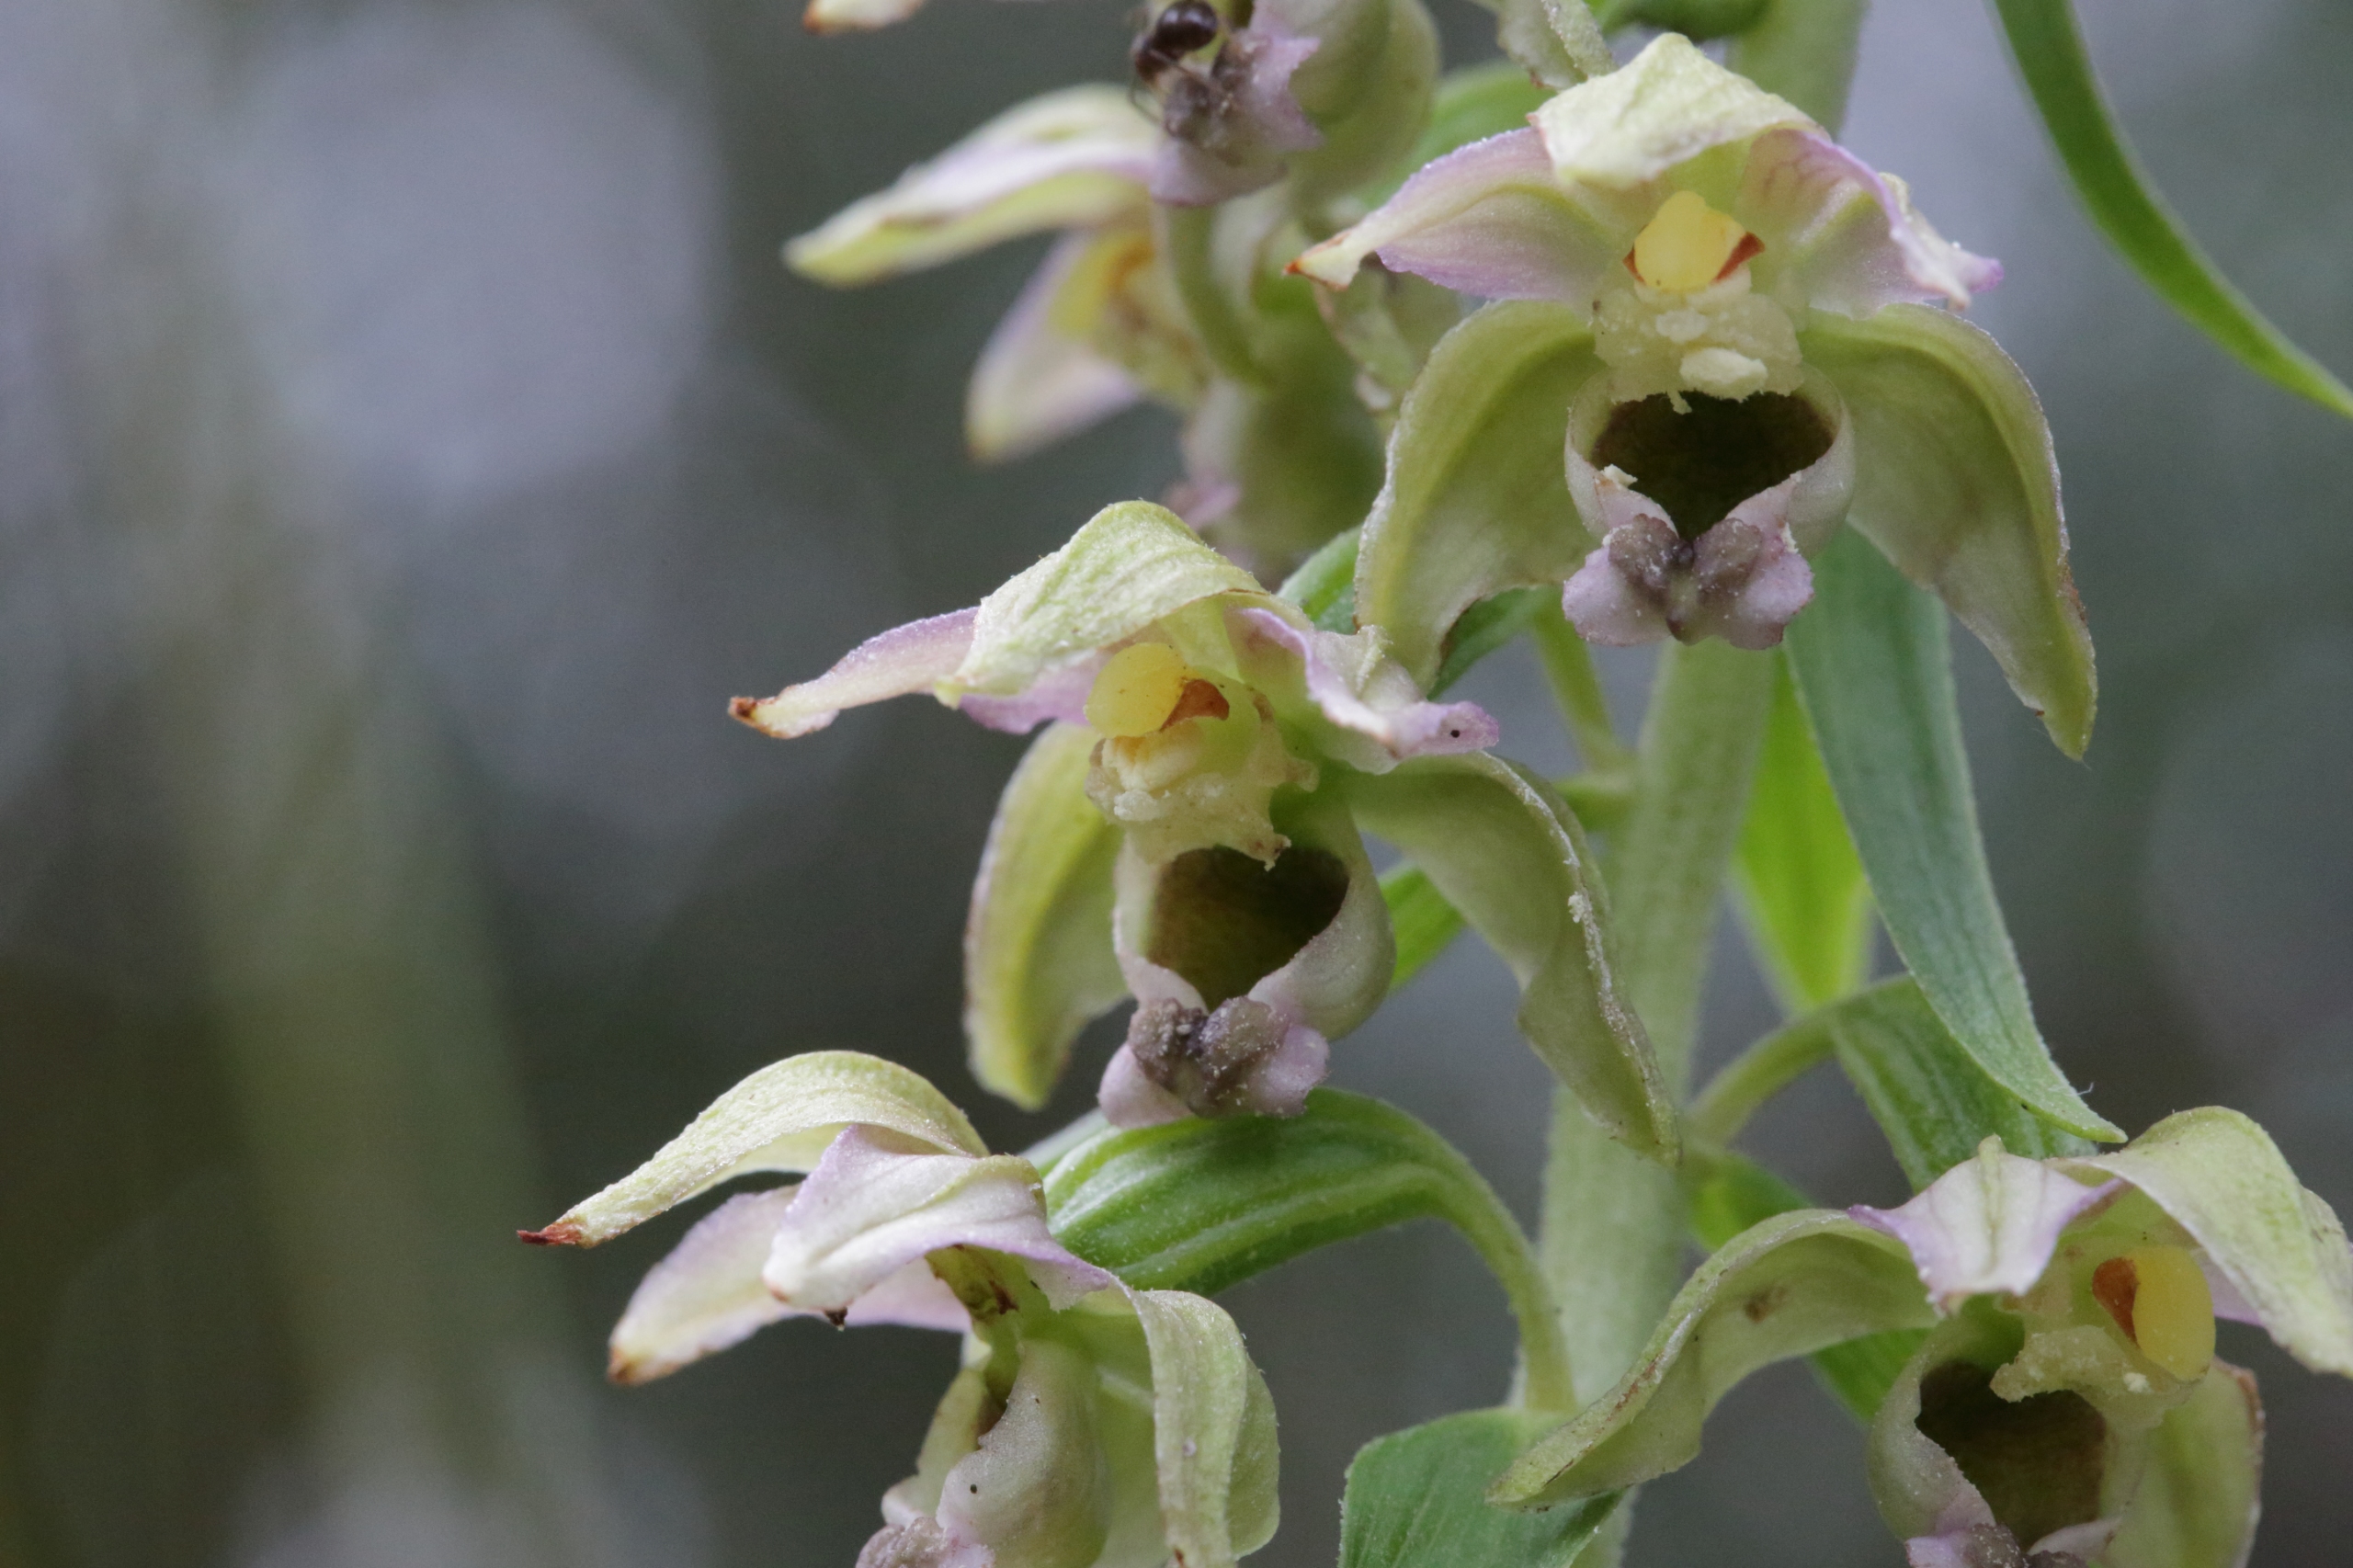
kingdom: Plantae
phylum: Tracheophyta
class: Liliopsida
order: Asparagales
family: Orchidaceae
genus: Epipactis
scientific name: Epipactis helleborine
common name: Skov-hullæbe
